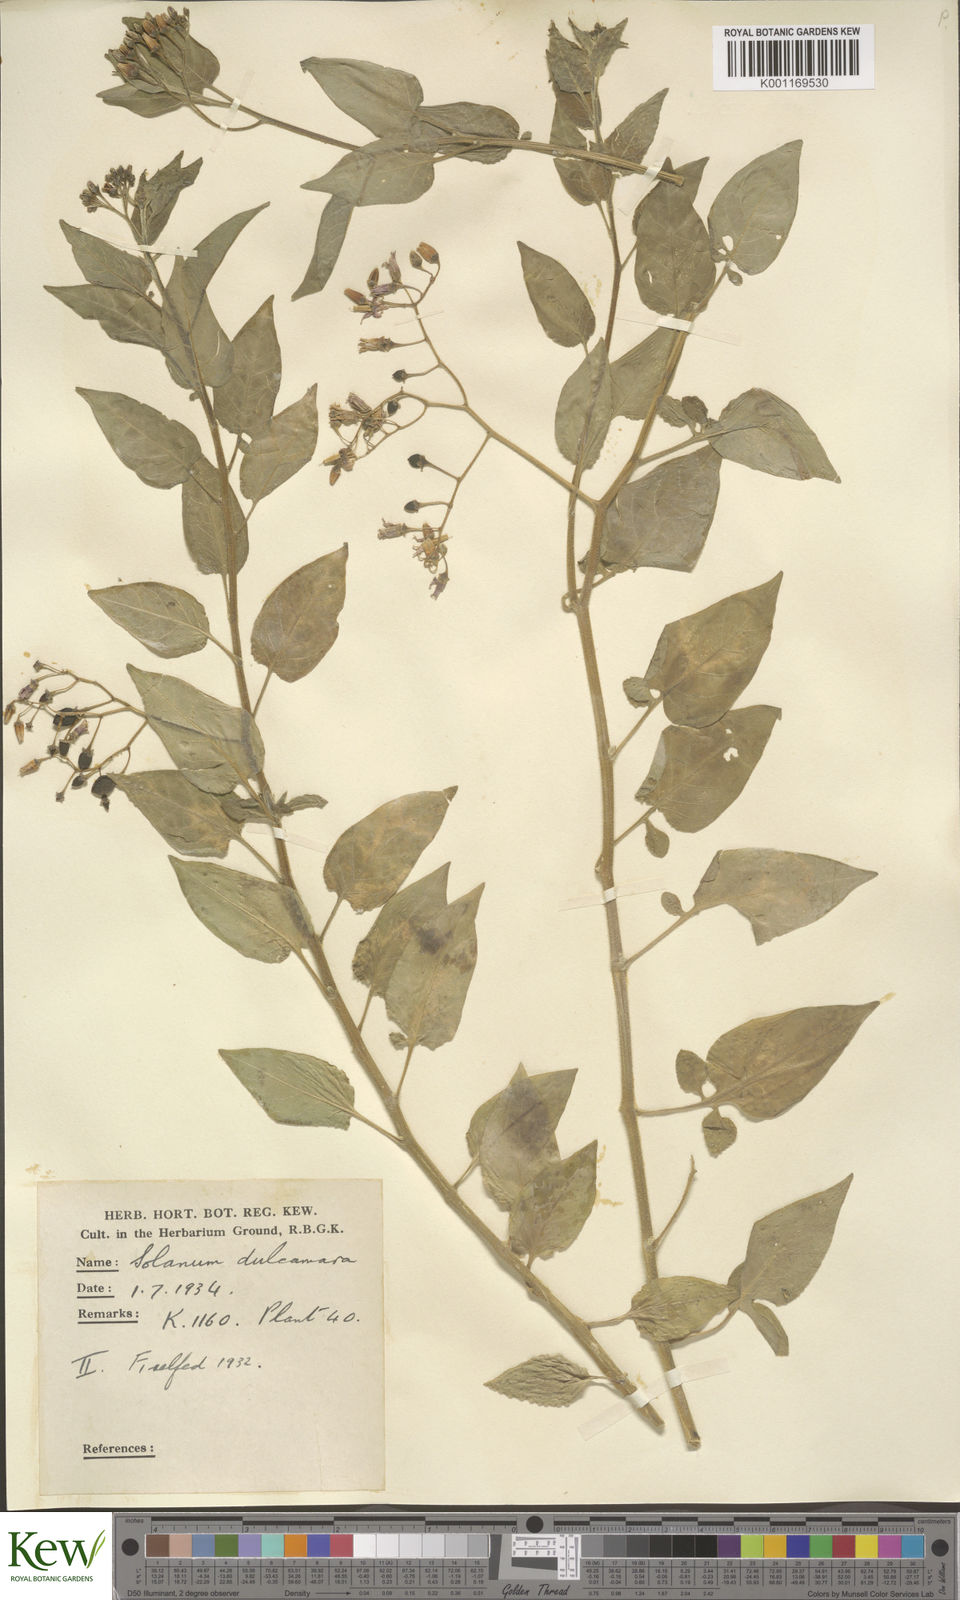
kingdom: Plantae
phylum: Tracheophyta
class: Magnoliopsida
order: Solanales
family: Solanaceae
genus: Solanum
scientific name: Solanum dulcamara
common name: Climbing nightshade
